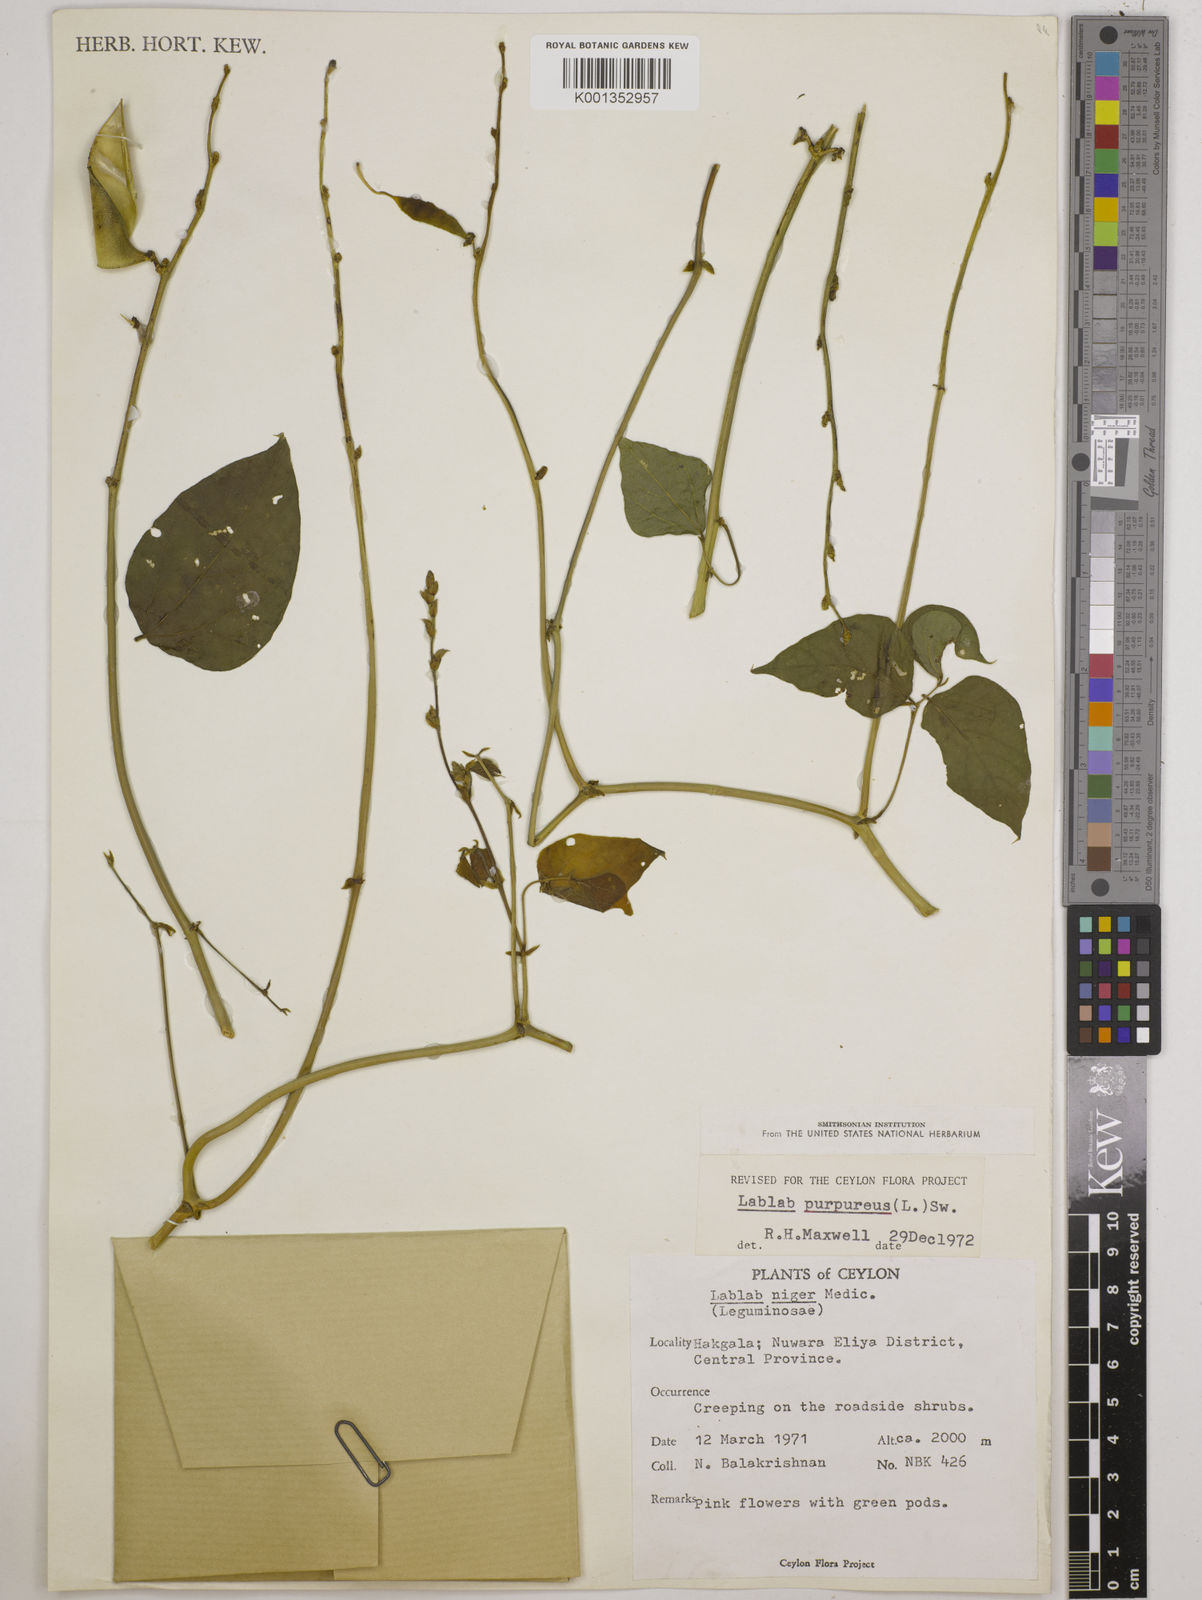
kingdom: Plantae
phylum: Tracheophyta
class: Magnoliopsida
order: Fabales
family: Fabaceae
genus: Lablab
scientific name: Lablab purpureus
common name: Lablab-bean
